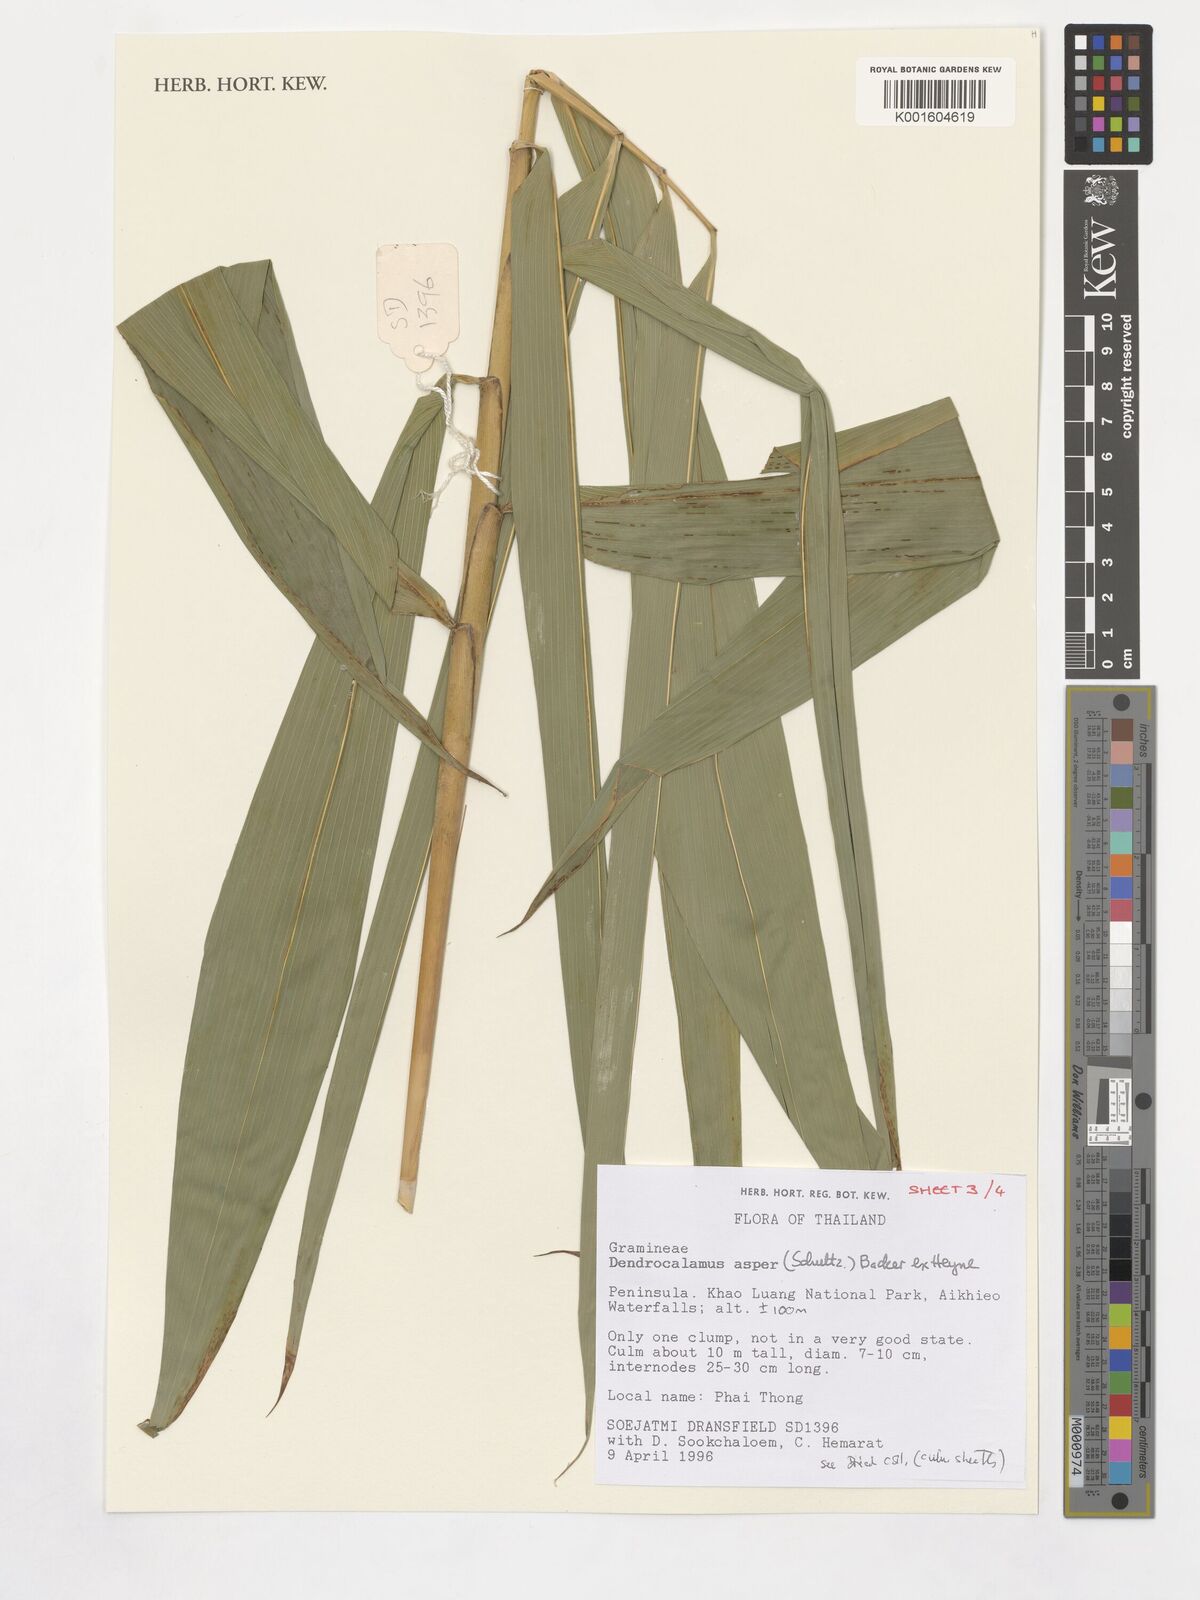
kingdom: Plantae
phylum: Tracheophyta
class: Liliopsida
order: Poales
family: Poaceae
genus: Dendrocalamus
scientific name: Dendrocalamus asper
